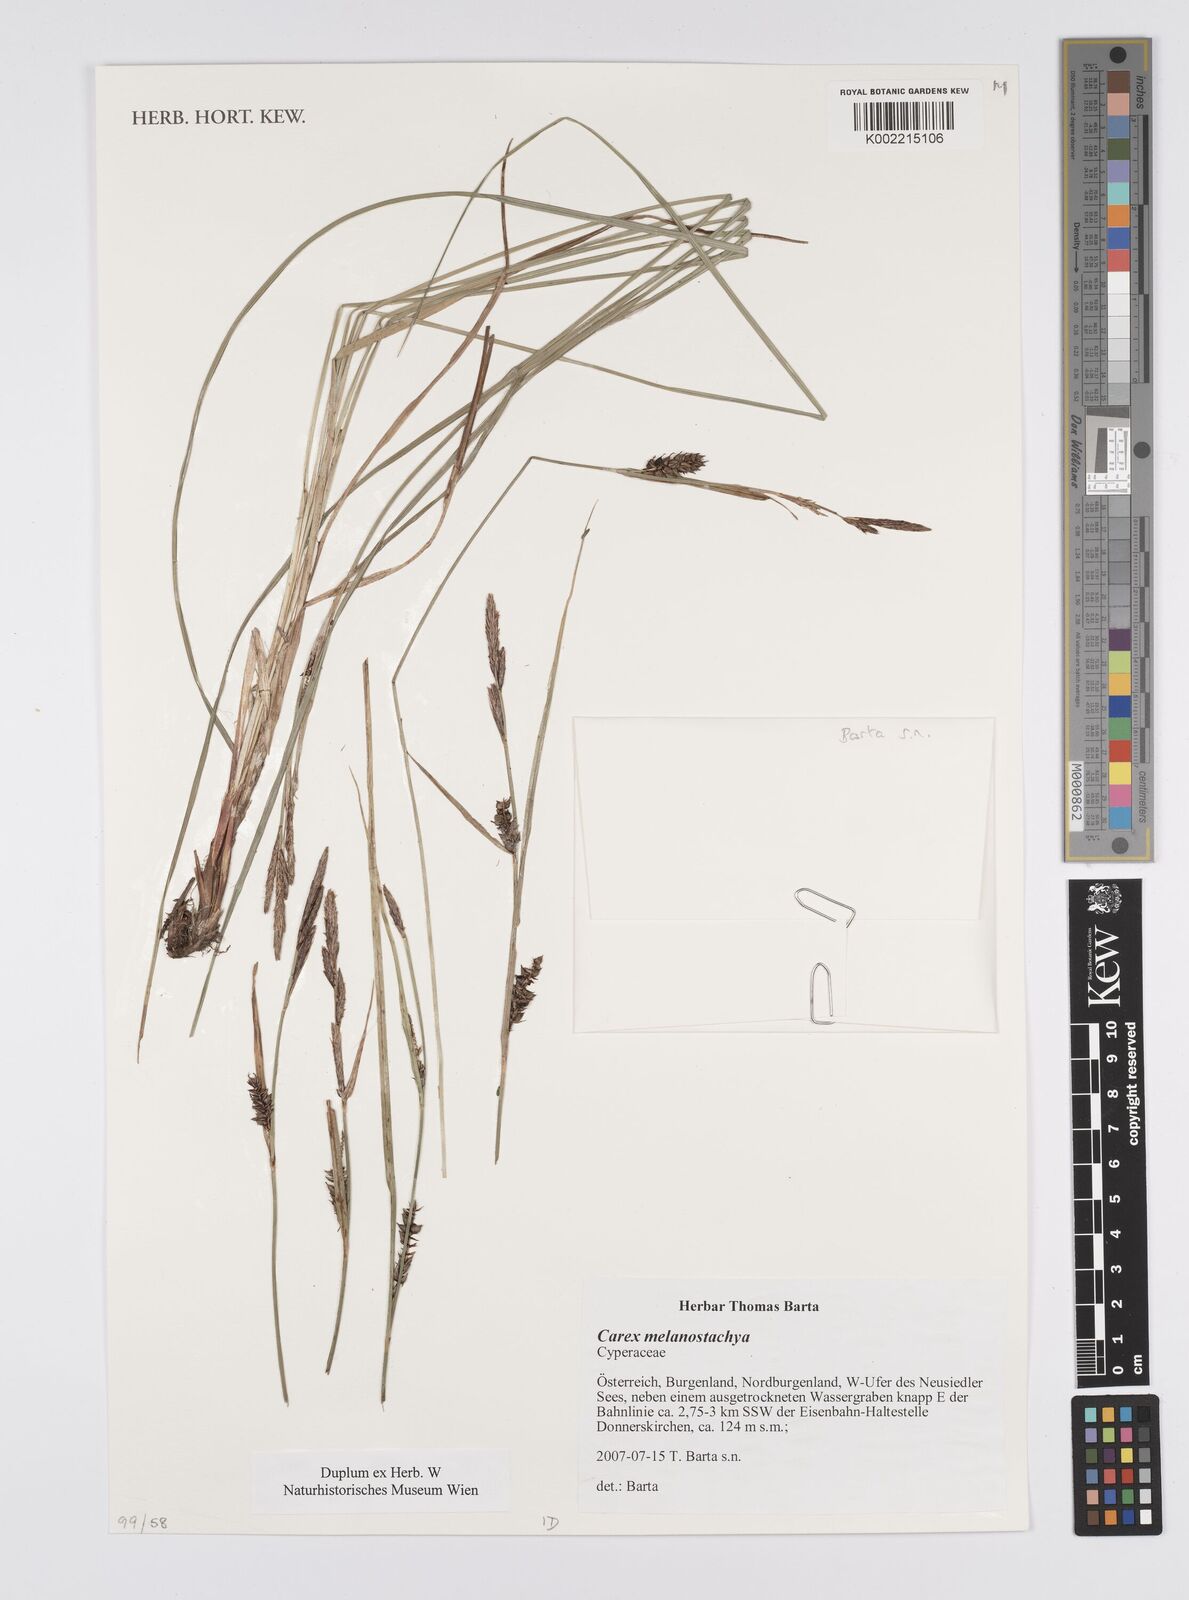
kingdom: Plantae
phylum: Tracheophyta
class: Liliopsida
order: Poales
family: Cyperaceae
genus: Carex
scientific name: Carex melanostachya
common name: Black-spiked sedge
